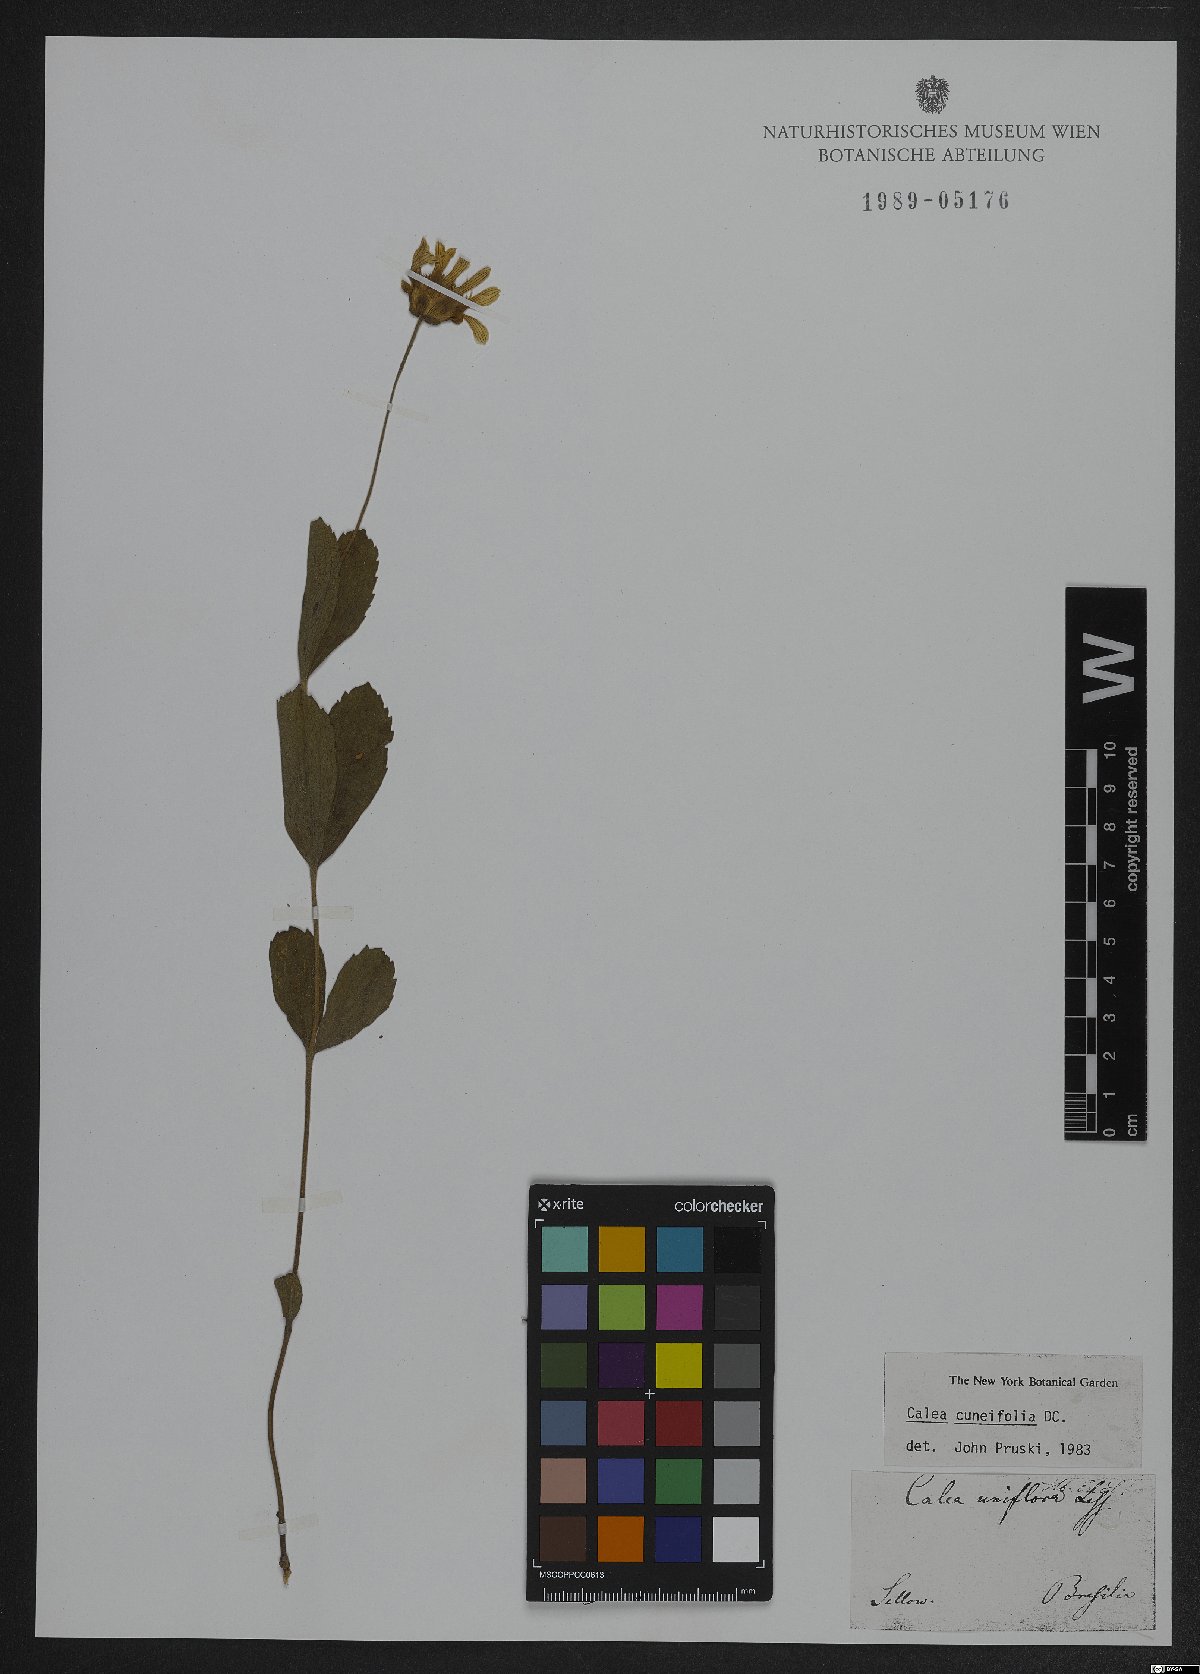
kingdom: Plantae
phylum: Tracheophyta
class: Magnoliopsida
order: Asterales
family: Asteraceae
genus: Calea
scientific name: Calea cuneifolia
